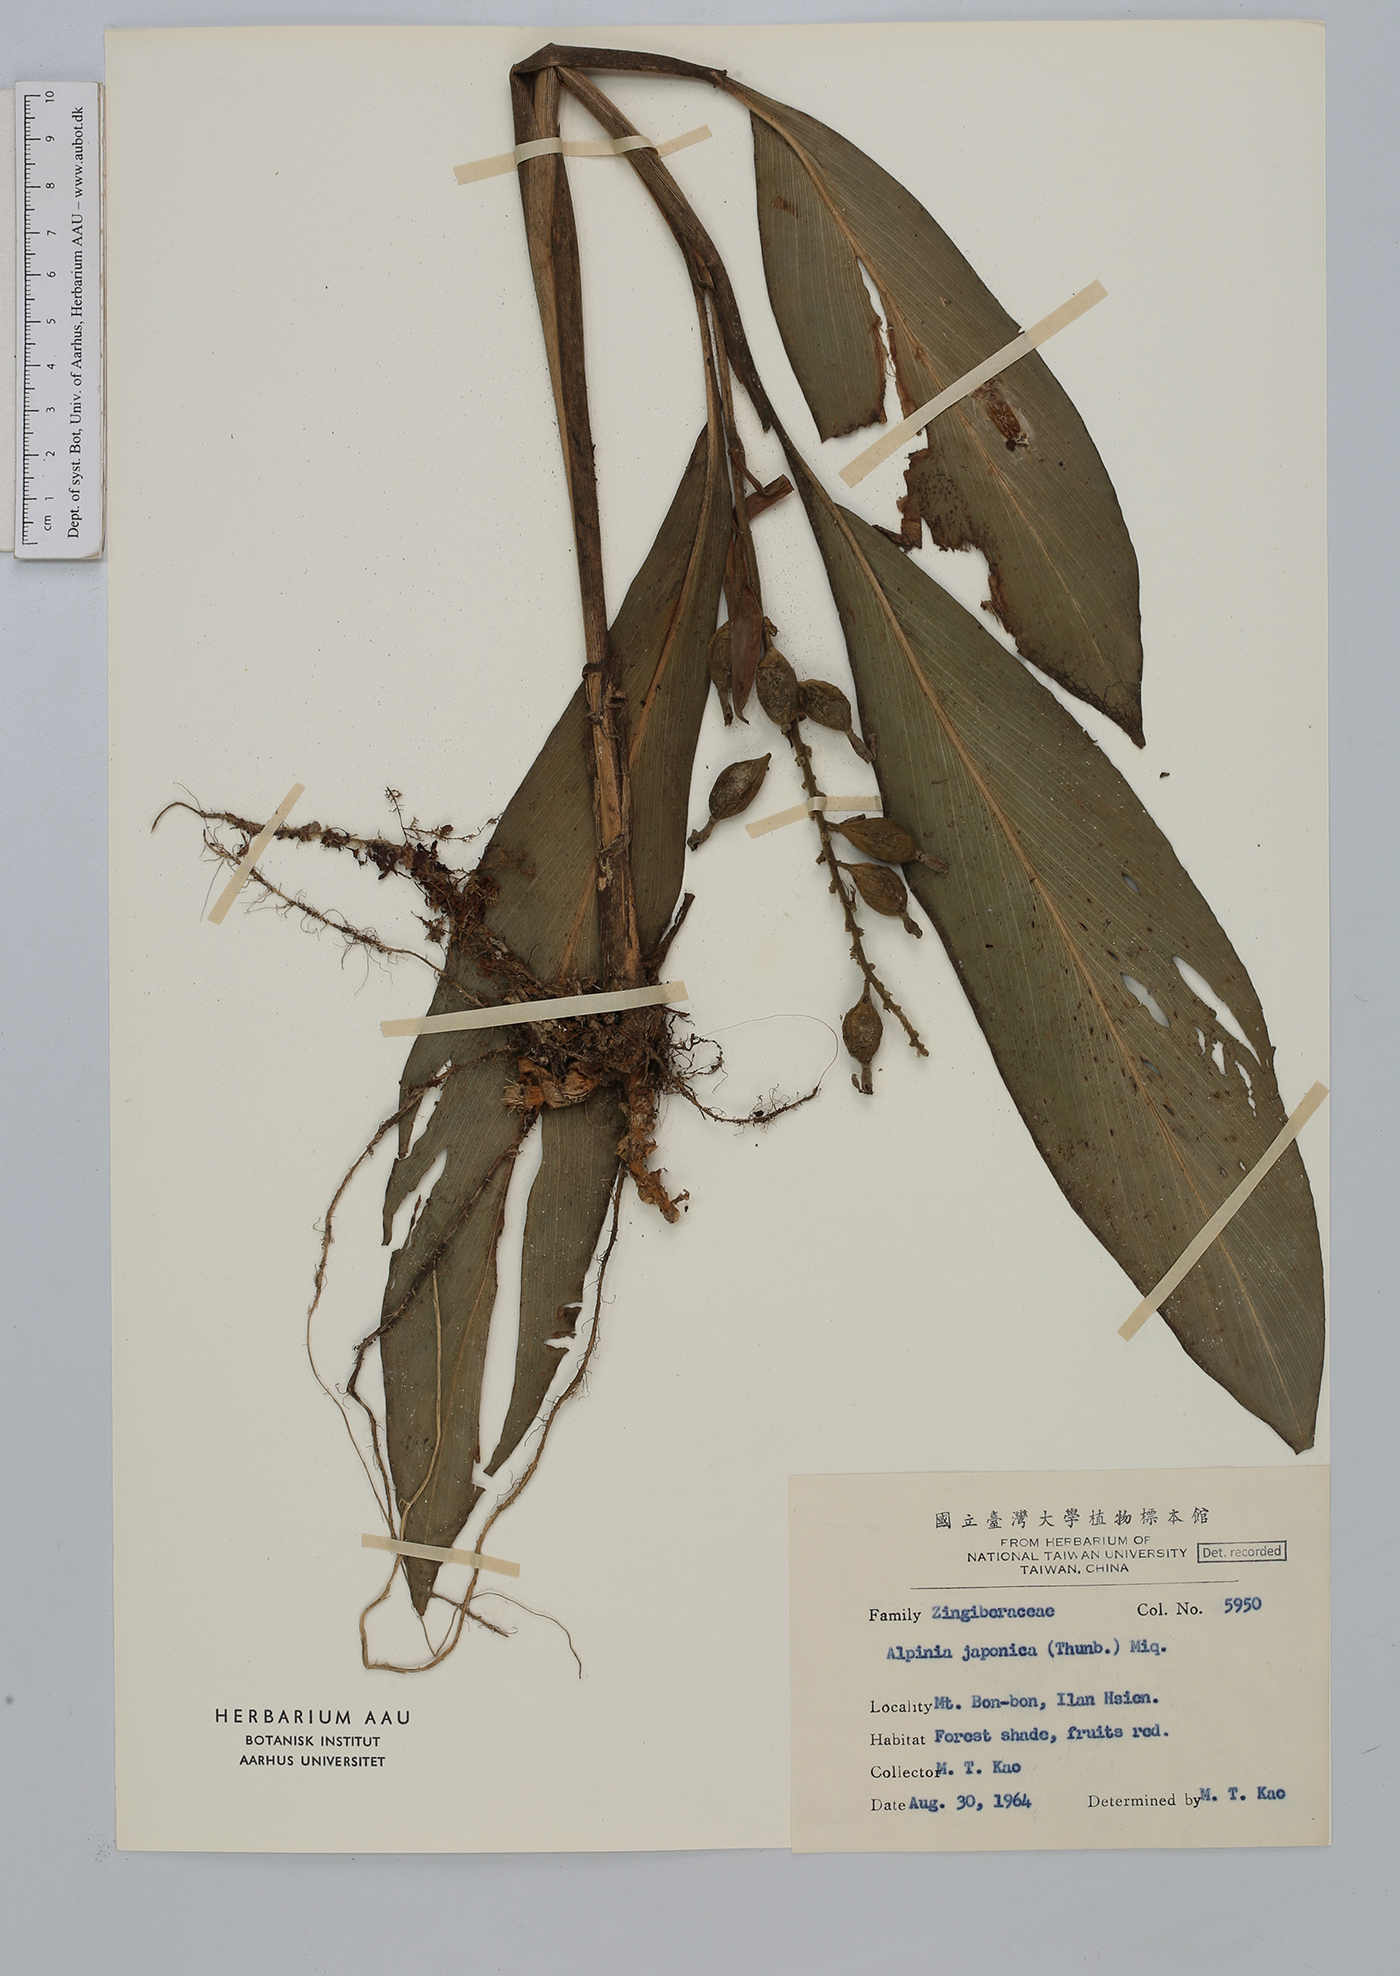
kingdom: Plantae
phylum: Tracheophyta
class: Liliopsida
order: Zingiberales
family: Zingiberaceae
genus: Alpinia
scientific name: Alpinia japonica
